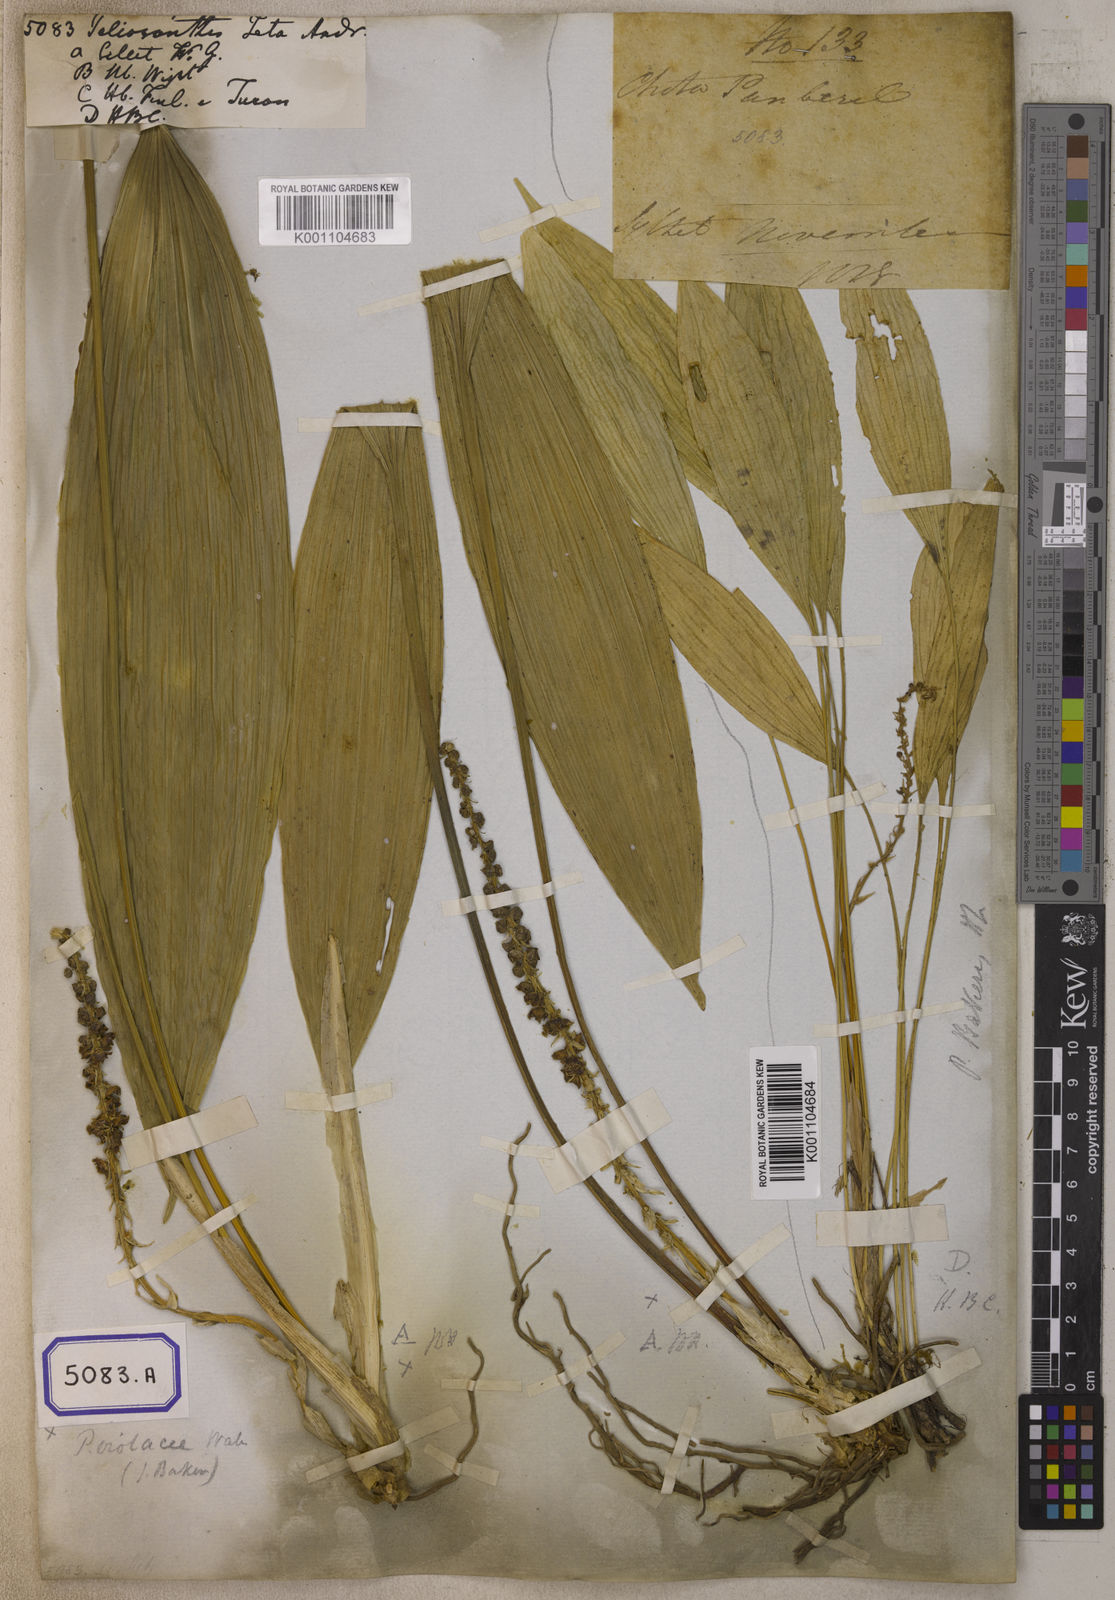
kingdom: Plantae
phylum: Tracheophyta
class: Liliopsida
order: Asparagales
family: Asparagaceae
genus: Peliosanthes
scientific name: Peliosanthes
